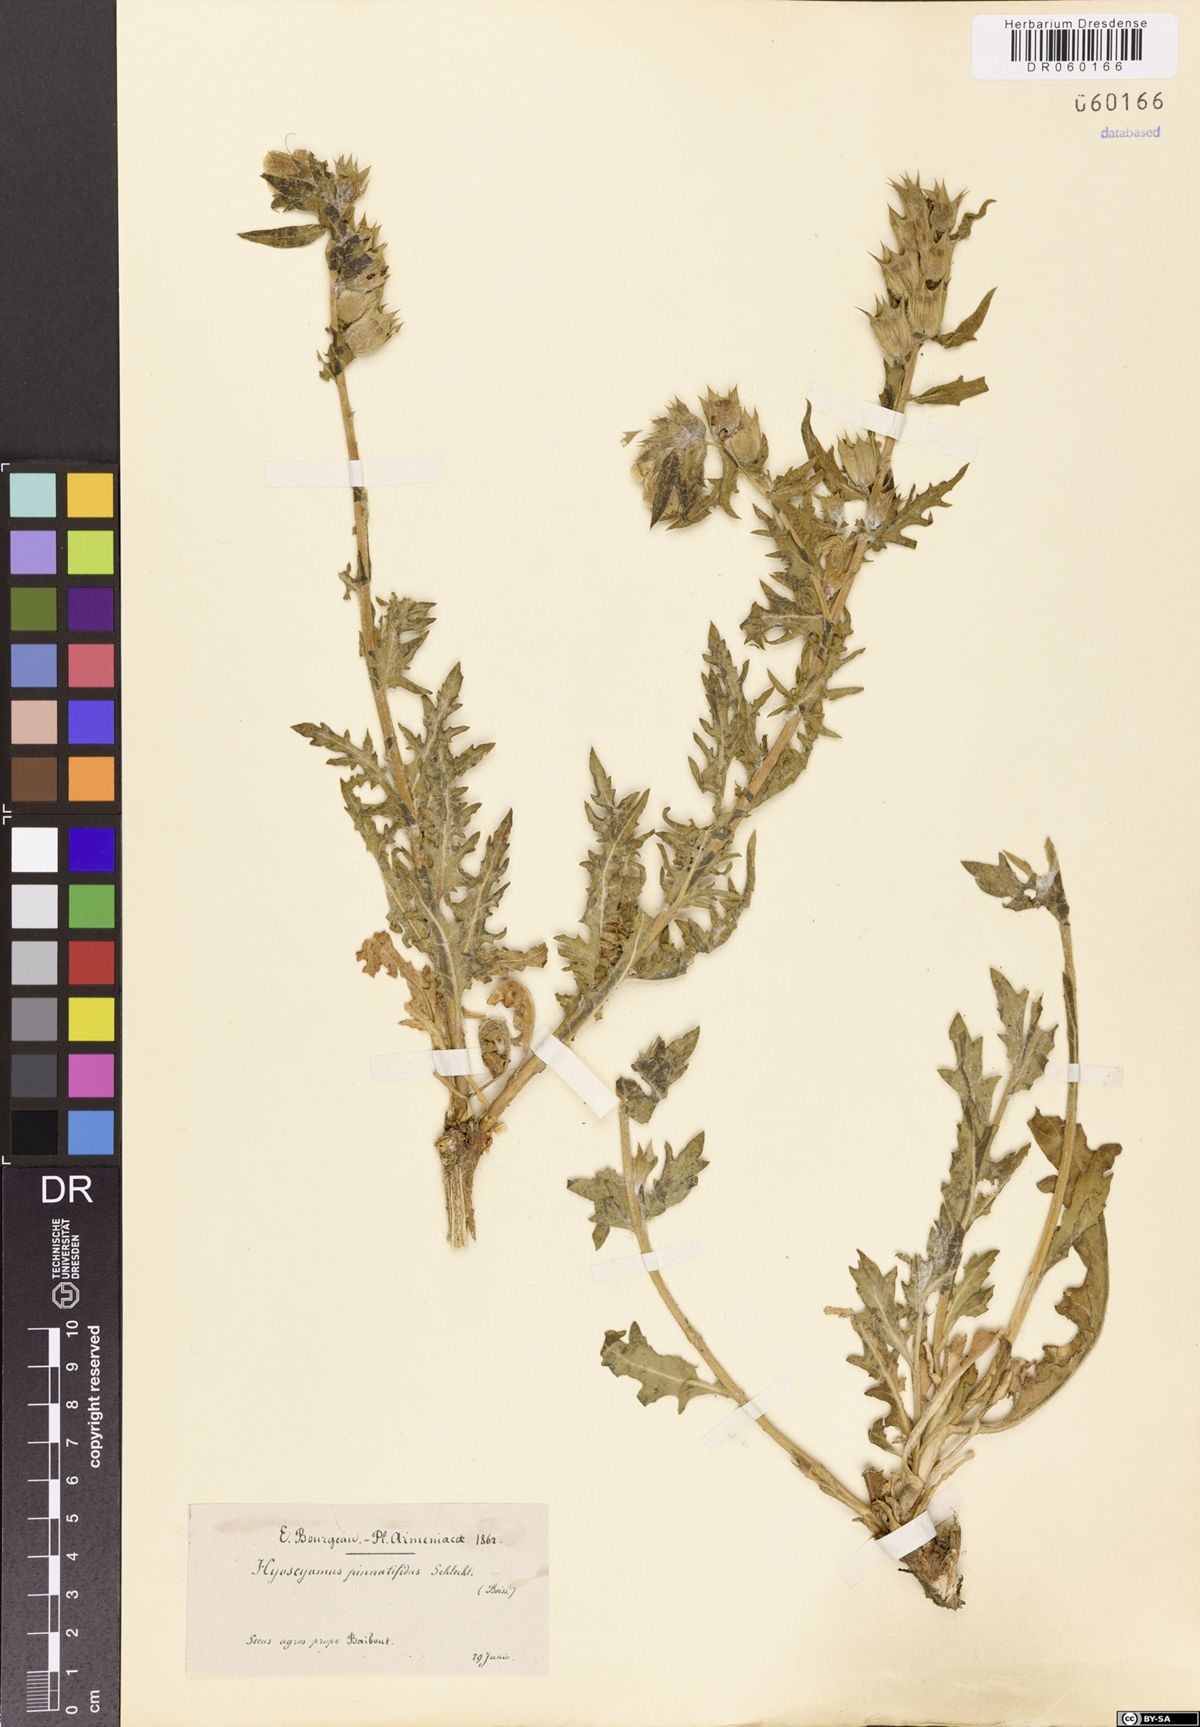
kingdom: Plantae
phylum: Tracheophyta
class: Magnoliopsida
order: Solanales
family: Solanaceae
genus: Hyoscyamus
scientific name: Hyoscyamus reticulatus
